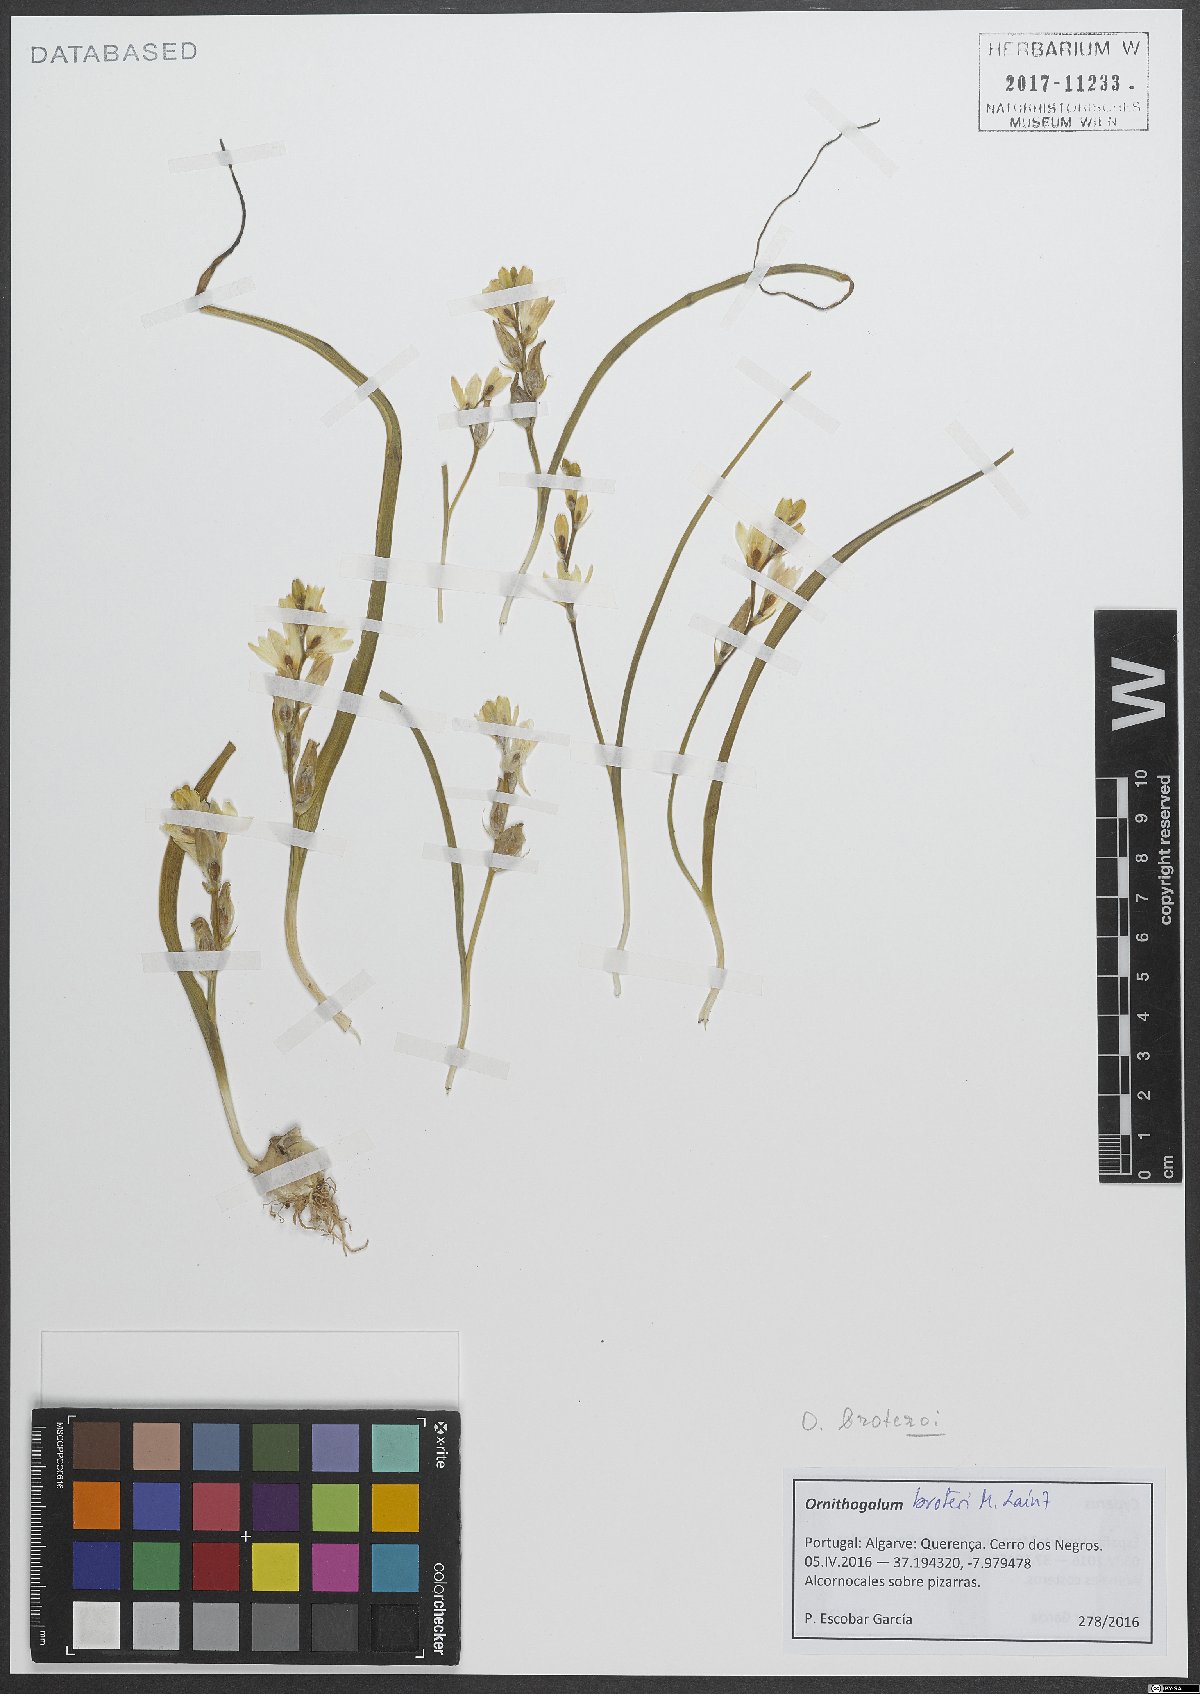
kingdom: Plantae
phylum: Tracheophyta
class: Liliopsida
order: Asparagales
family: Asparagaceae
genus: Ornithogalum
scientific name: Ornithogalum broteroi
